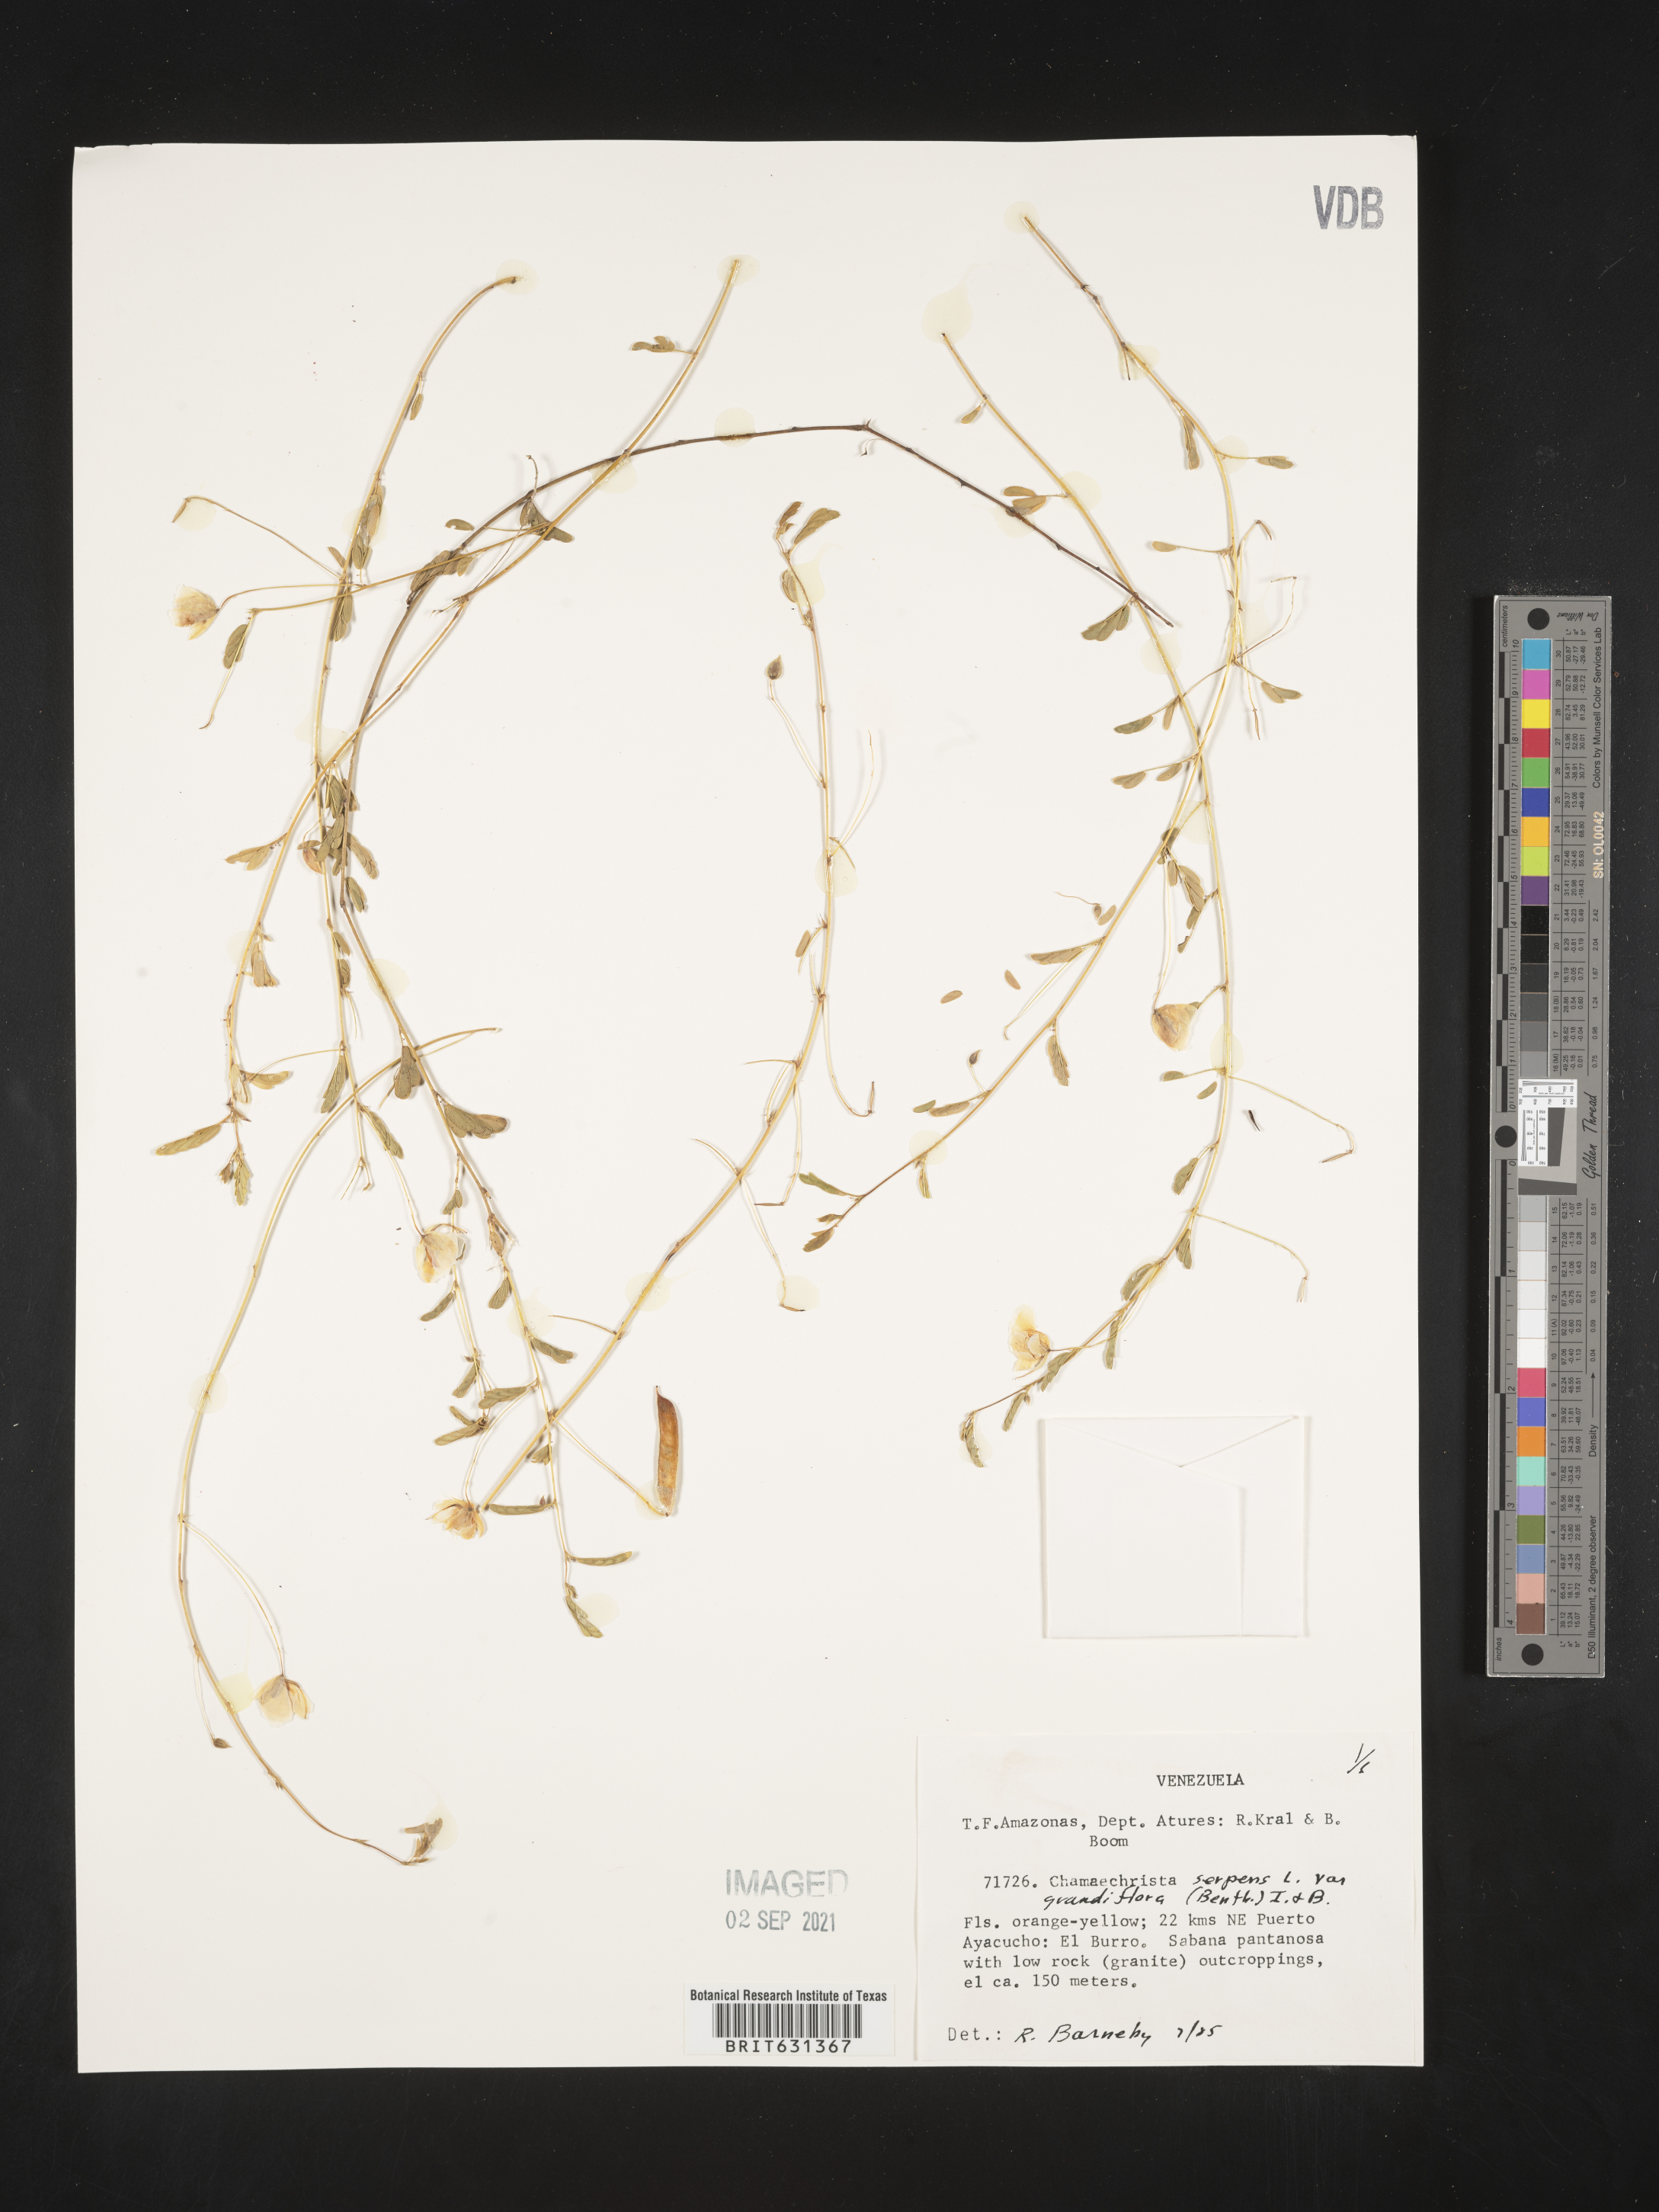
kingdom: Plantae
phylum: Tracheophyta
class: Magnoliopsida
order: Fabales
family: Fabaceae
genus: Chamaecrista
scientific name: Chamaecrista serpens
